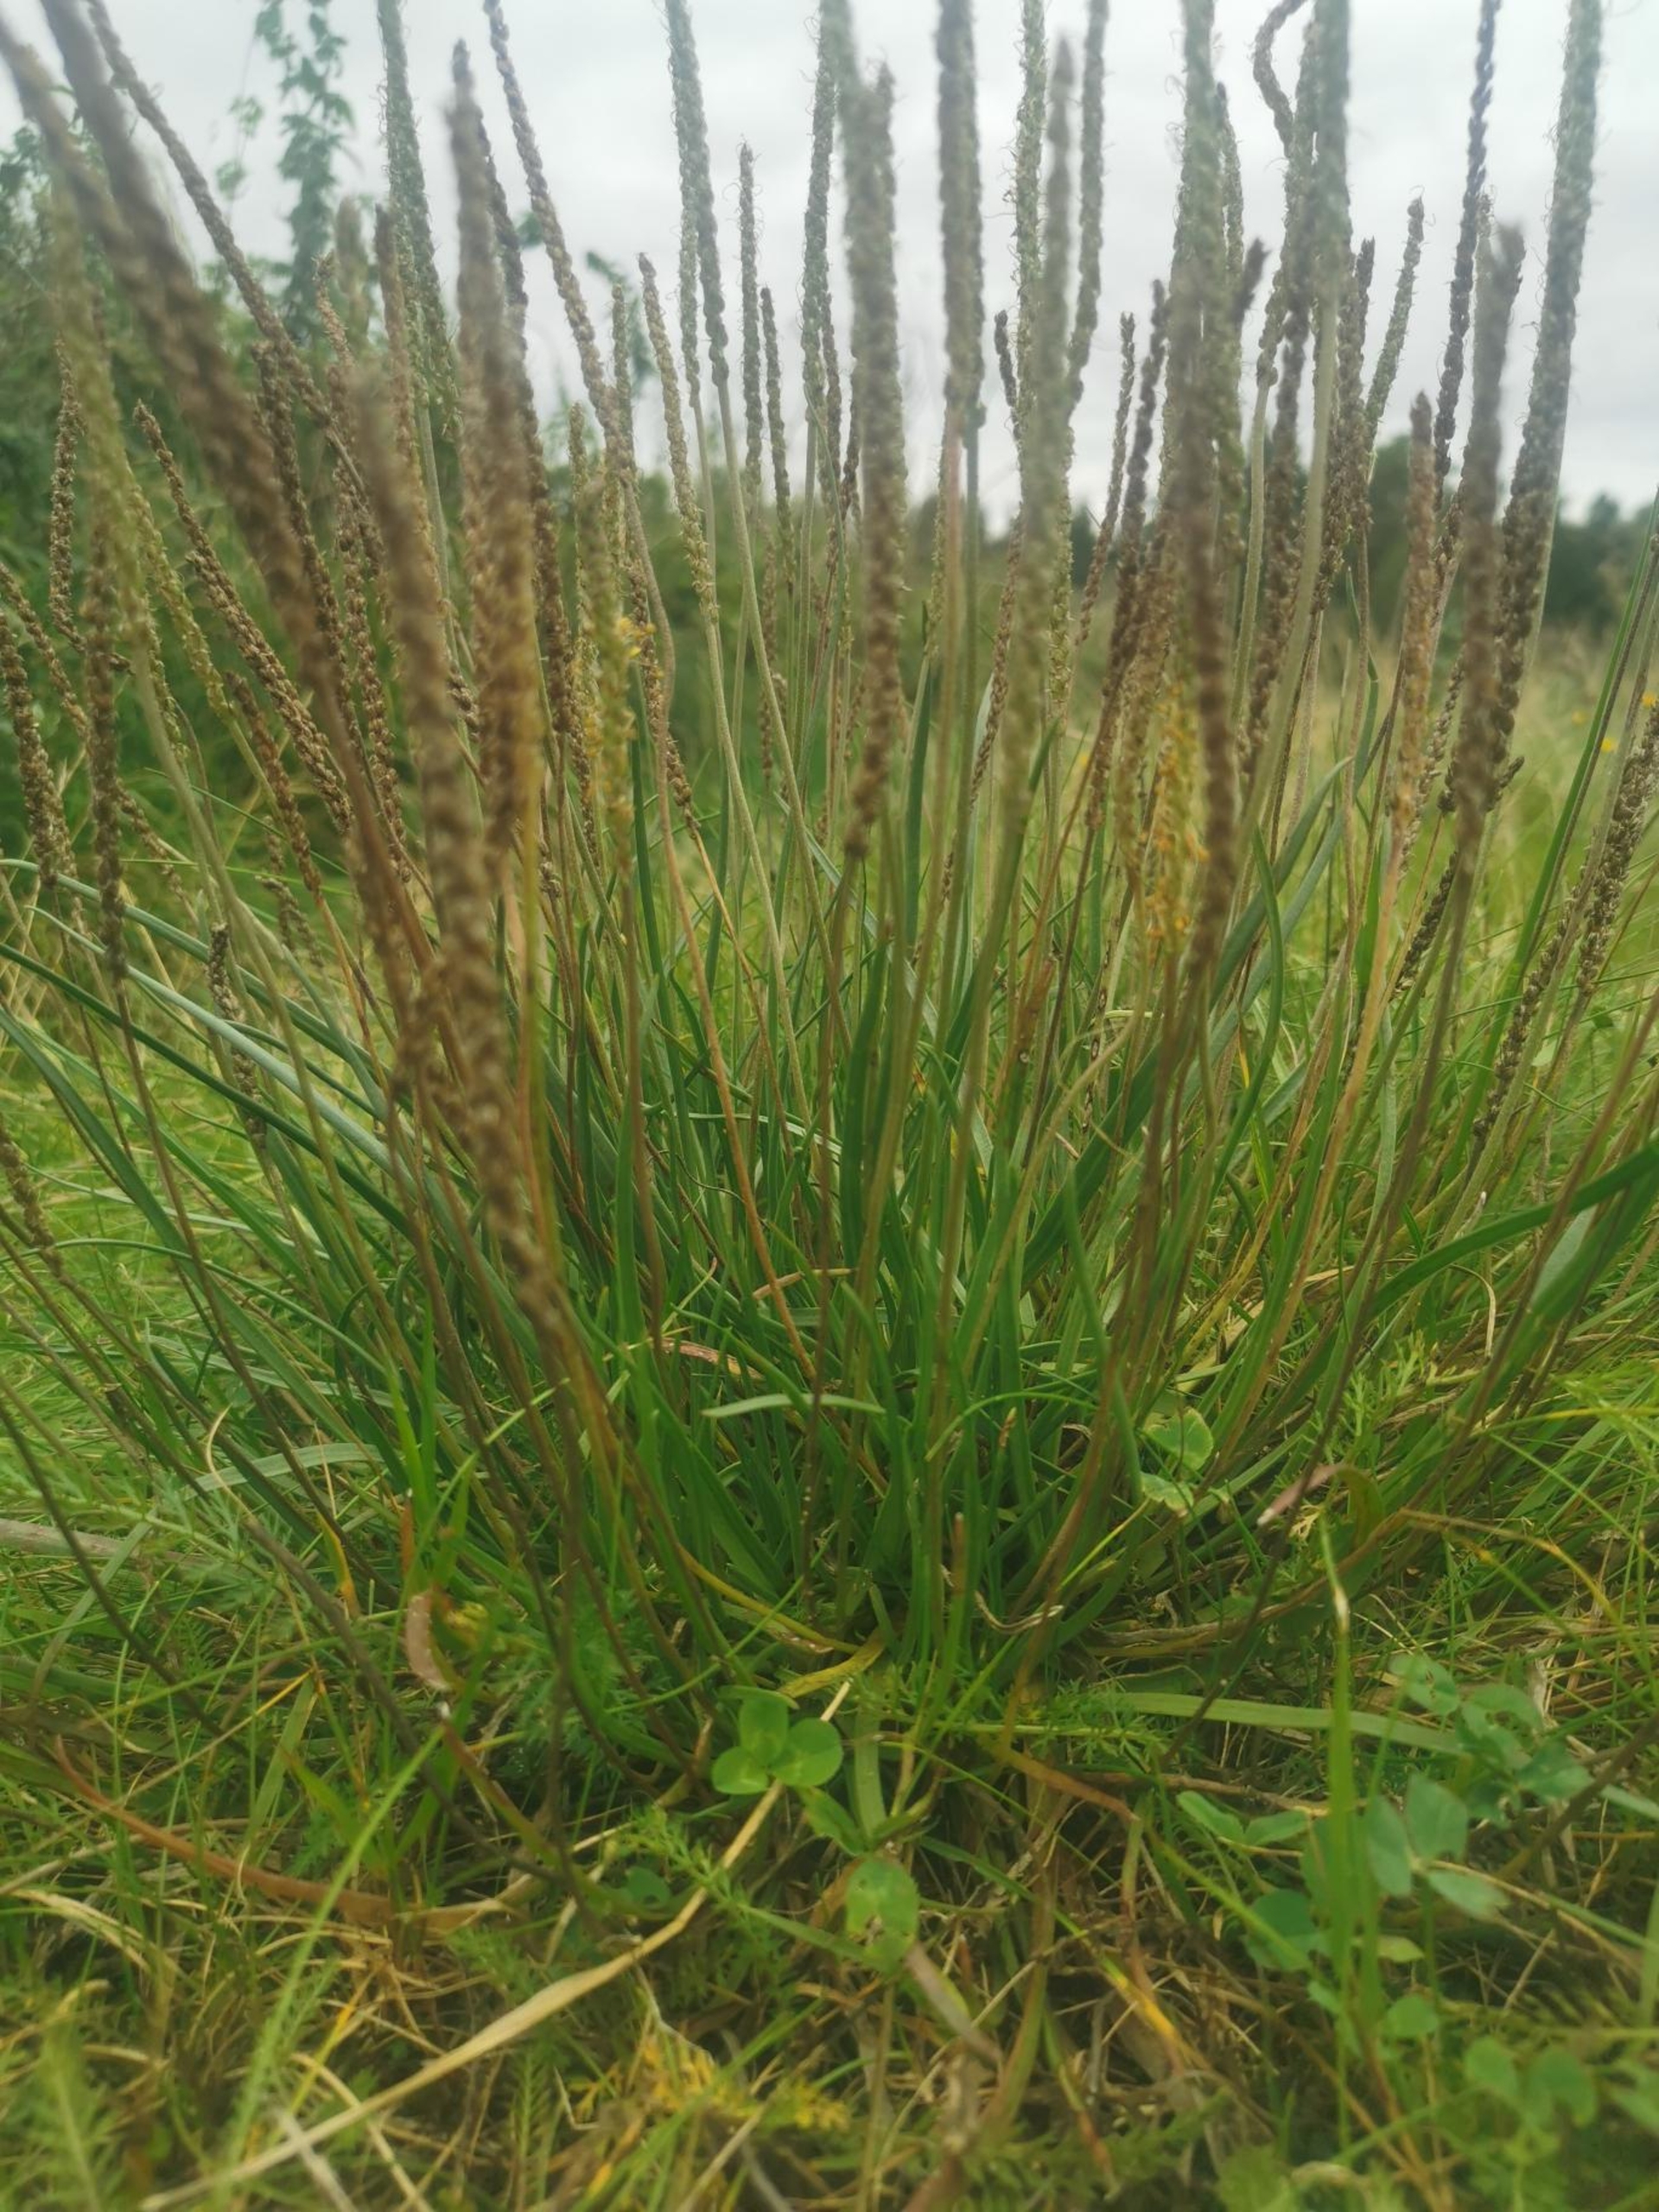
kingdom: Plantae
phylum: Tracheophyta
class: Magnoliopsida
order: Lamiales
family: Plantaginaceae
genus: Plantago
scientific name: Plantago maritima
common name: Strand-vejbred
